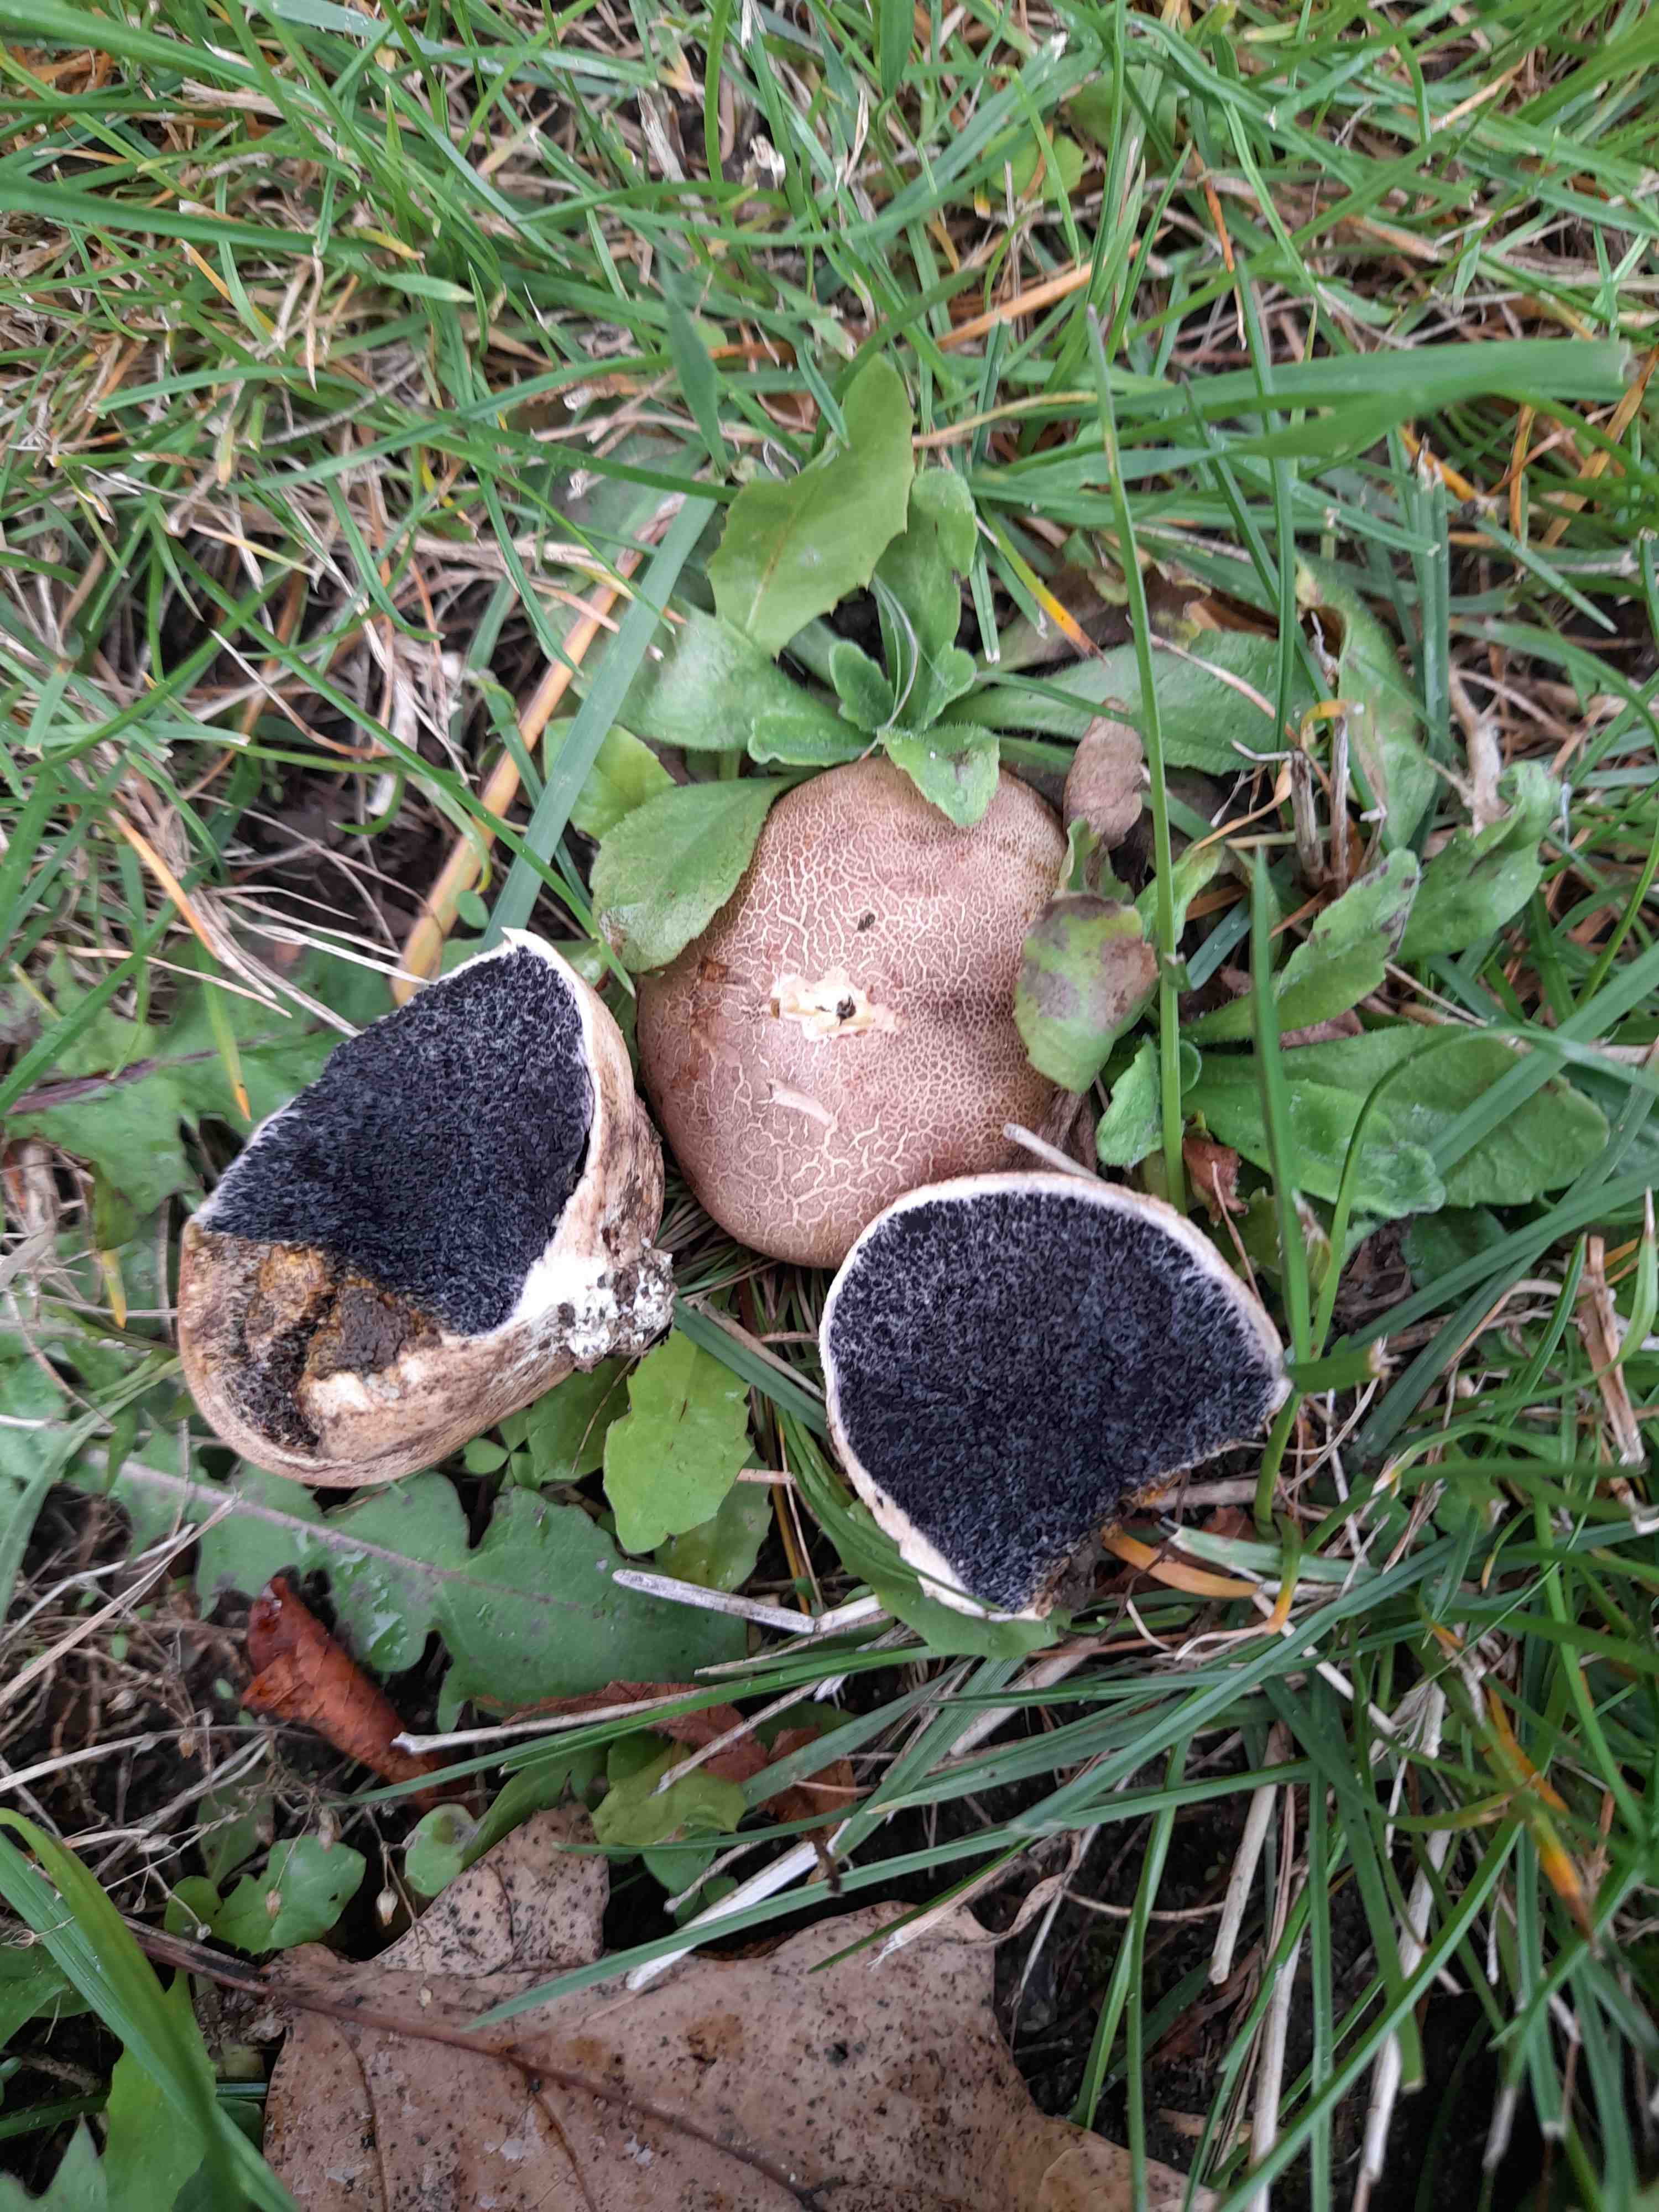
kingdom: Fungi
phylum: Basidiomycota
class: Agaricomycetes
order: Boletales
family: Sclerodermataceae
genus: Scleroderma
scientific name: Scleroderma
